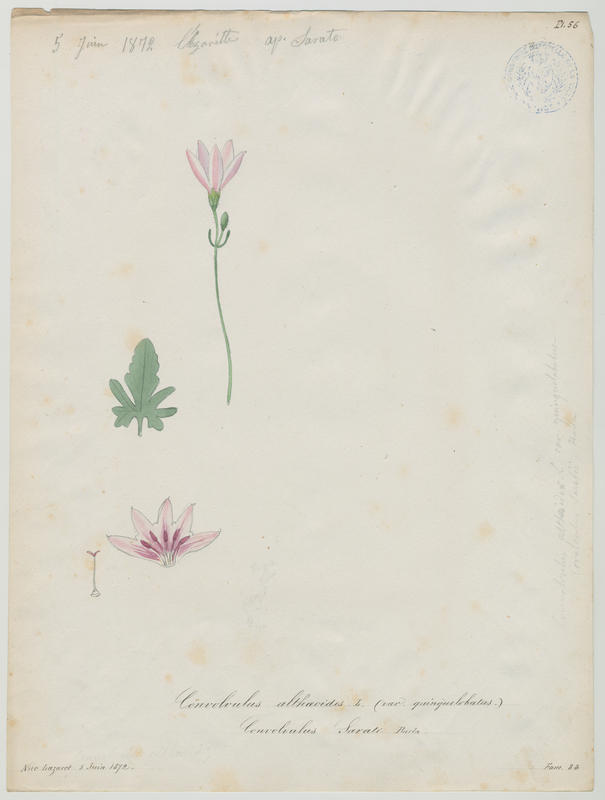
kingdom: Plantae
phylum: Tracheophyta
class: Magnoliopsida
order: Solanales
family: Convolvulaceae
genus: Convolvulus
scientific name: Convolvulus althaeoides
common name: Mallow bindweed
